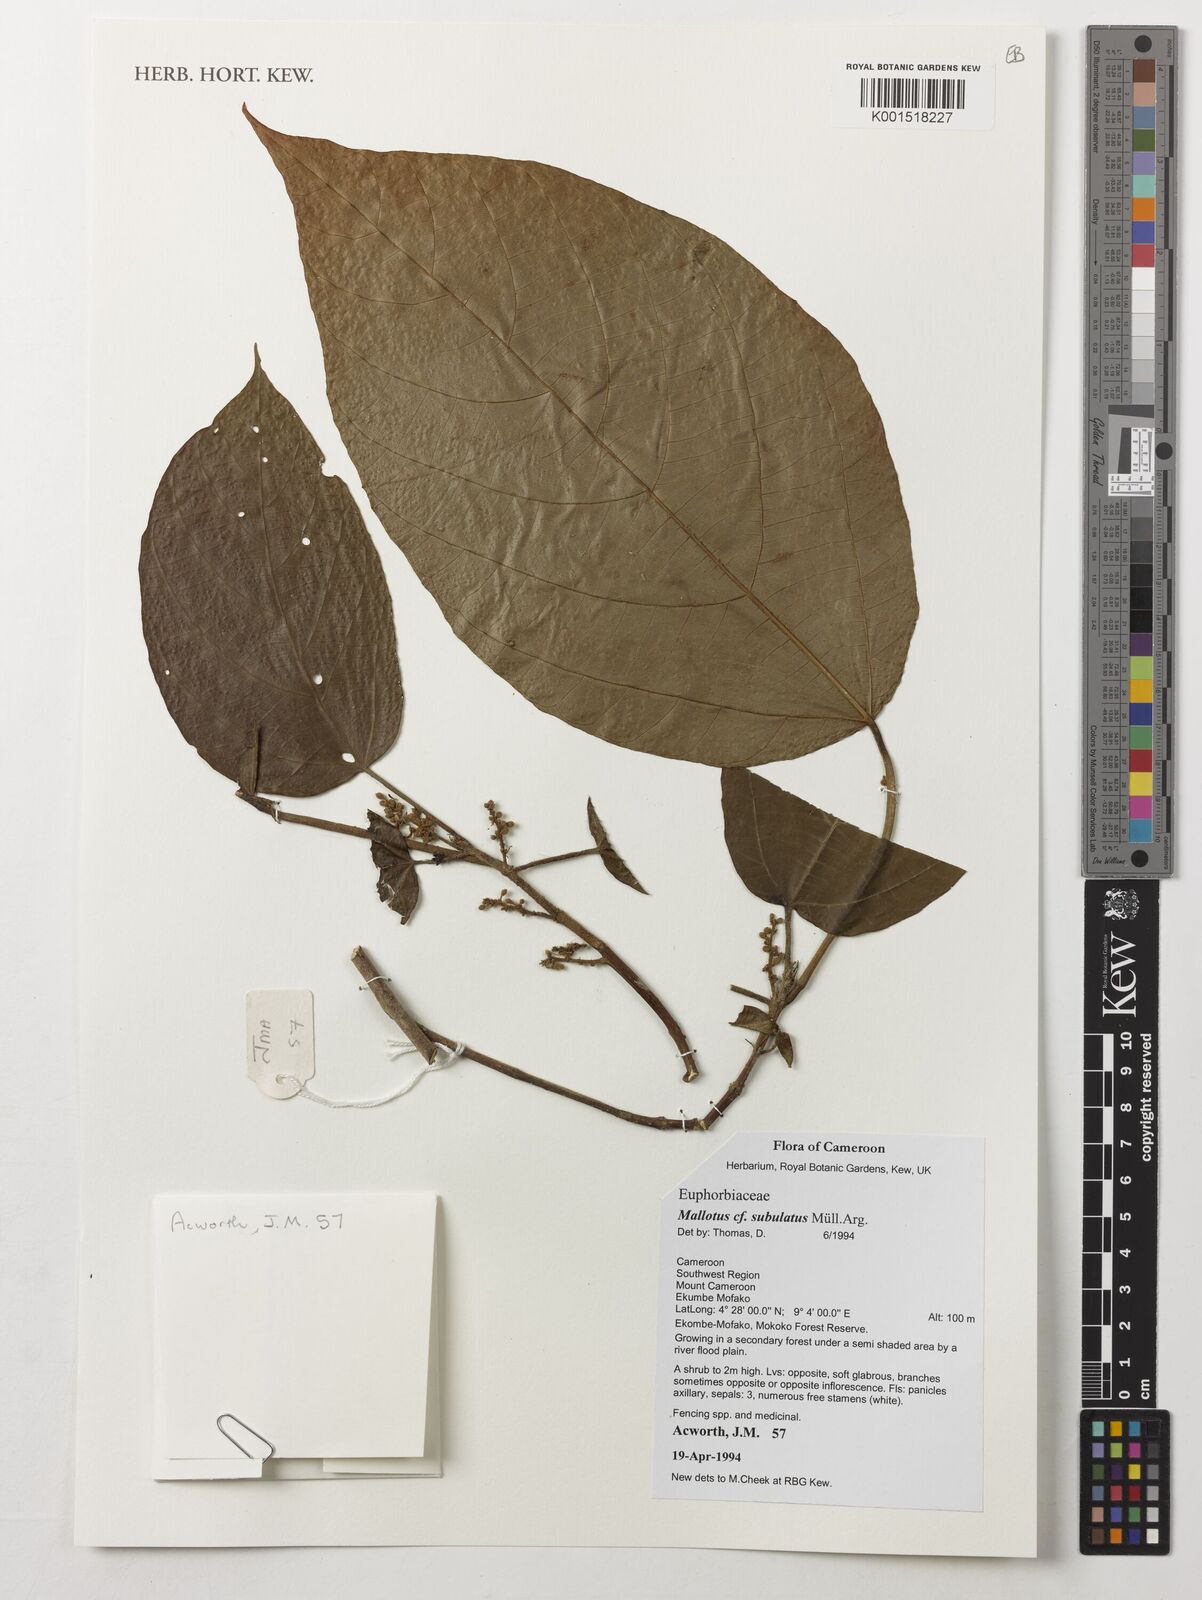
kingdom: Plantae
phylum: Tracheophyta
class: Magnoliopsida
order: Malpighiales
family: Euphorbiaceae
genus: Mallotus
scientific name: Mallotus subulatus
